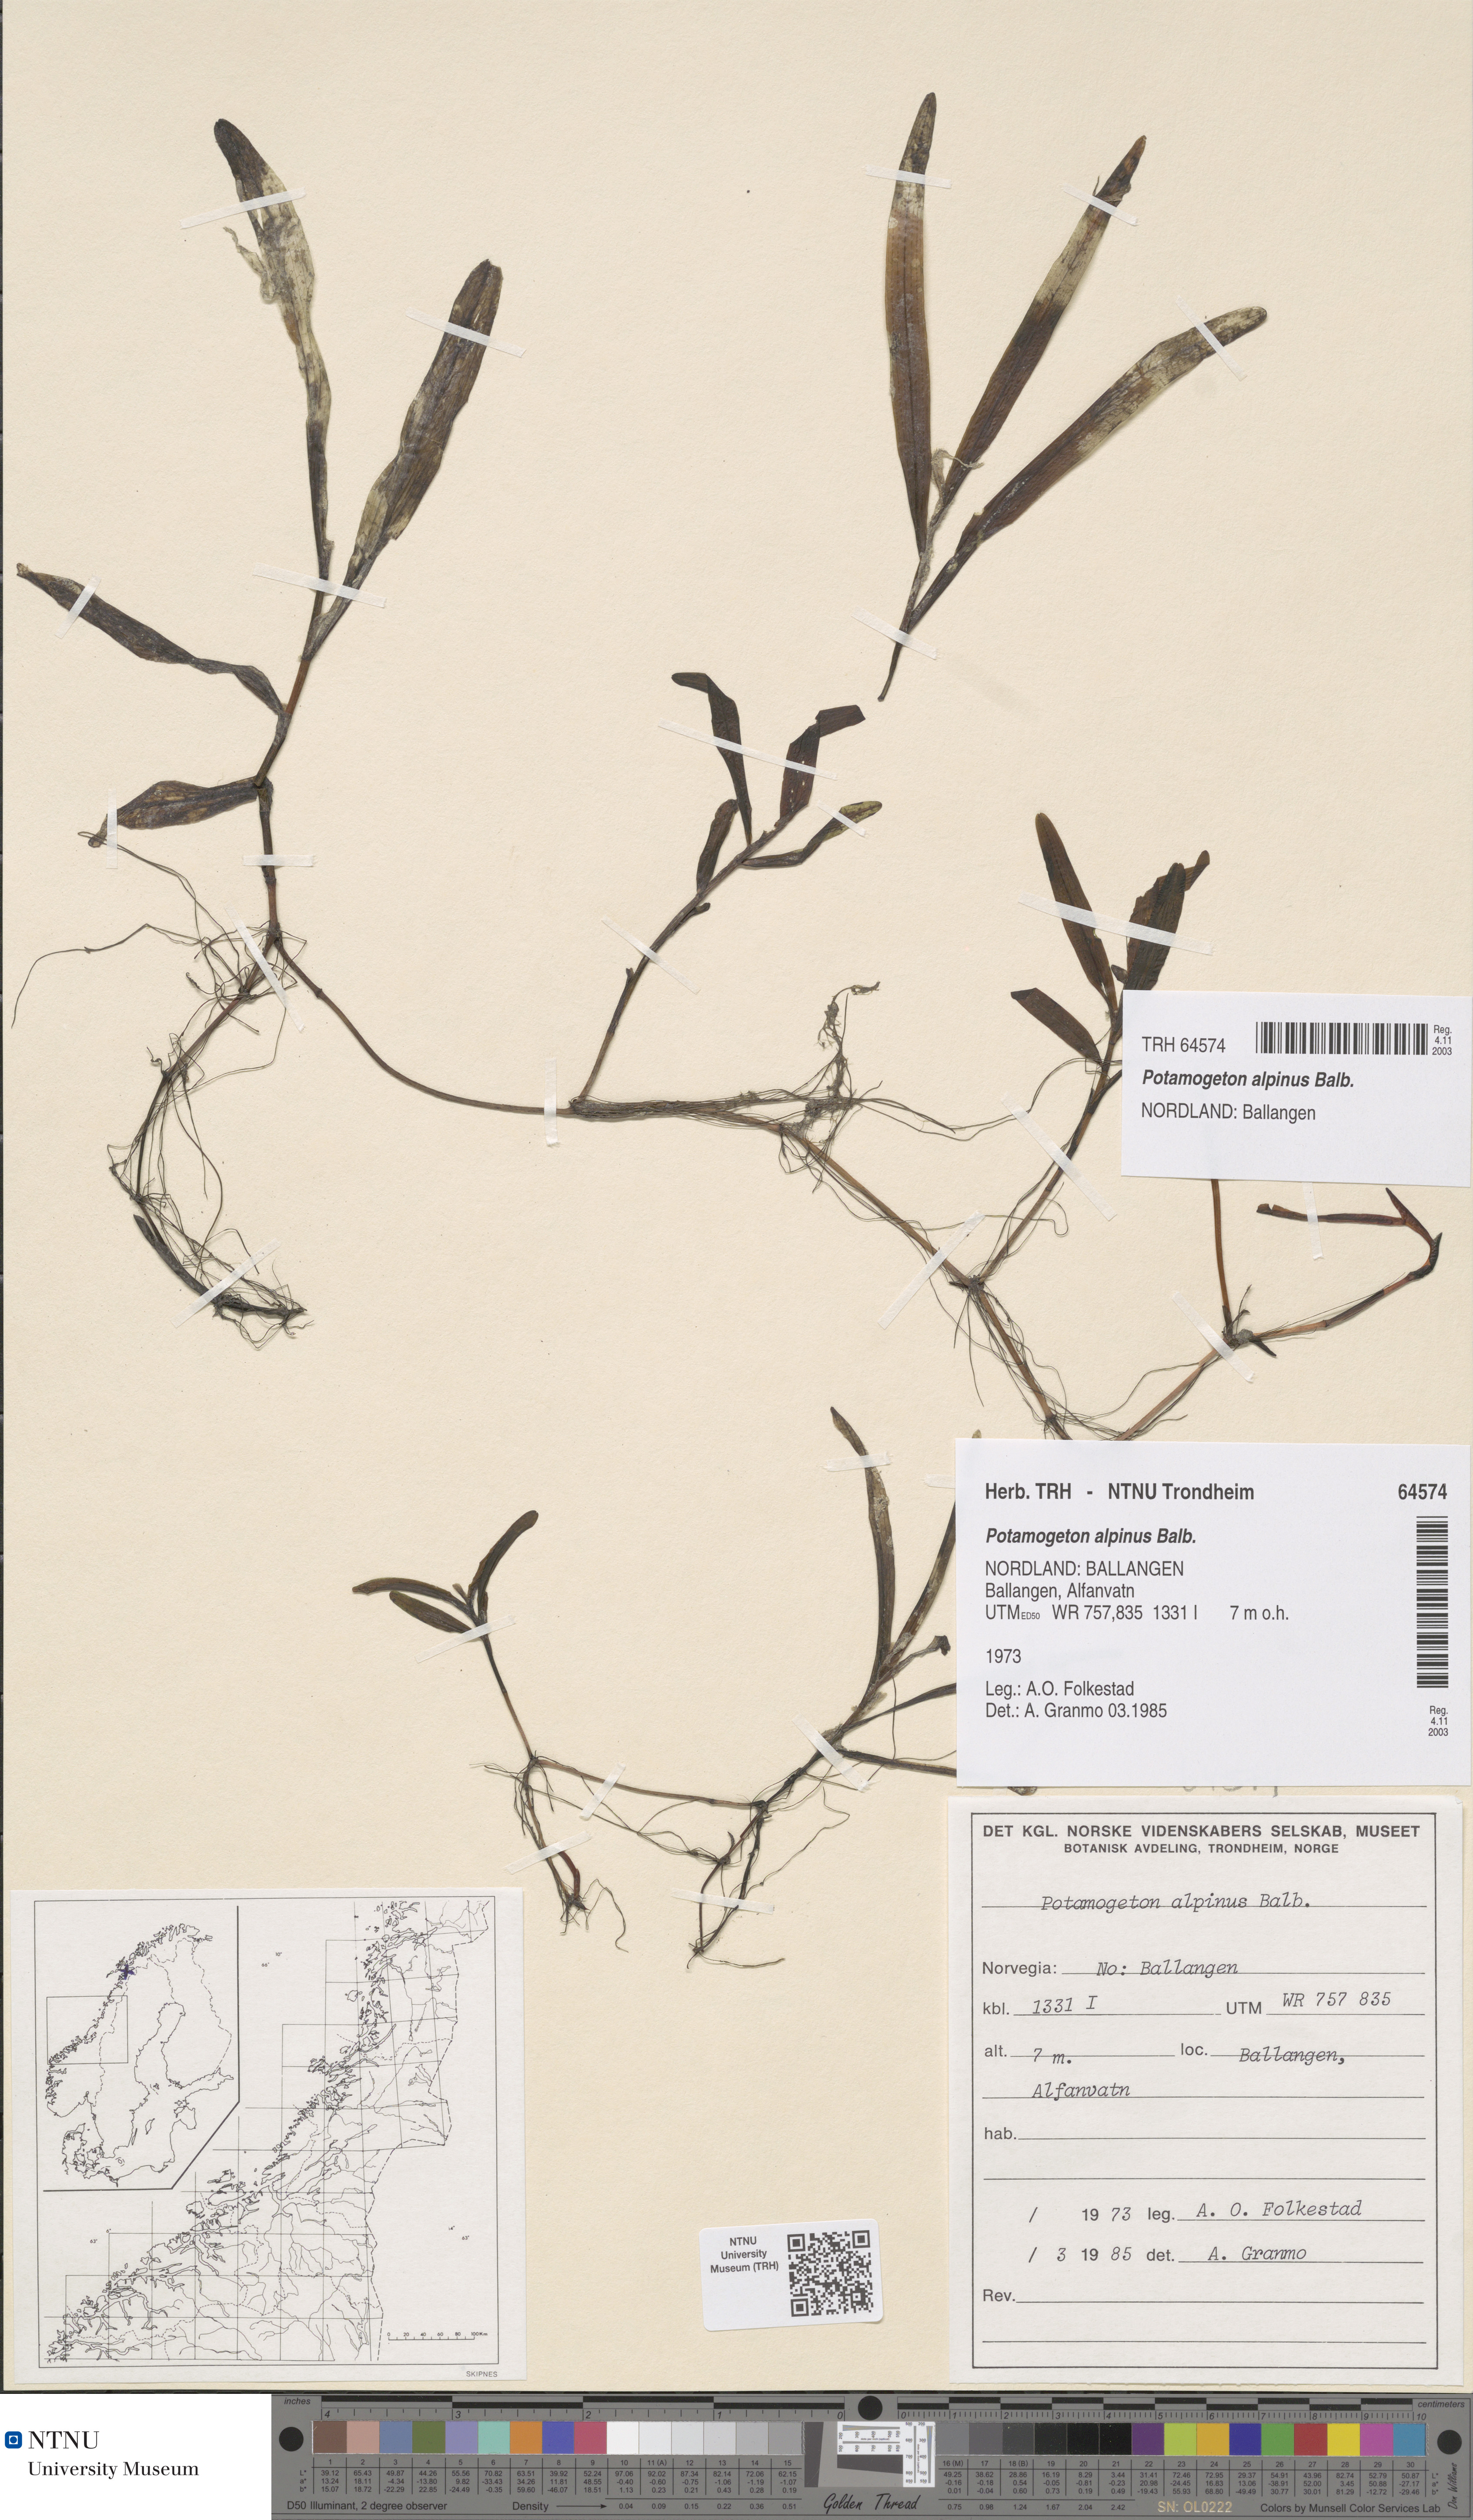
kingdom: Plantae
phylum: Tracheophyta
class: Liliopsida
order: Alismatales
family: Potamogetonaceae
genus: Potamogeton
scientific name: Potamogeton alpinus
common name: Red pondweed
